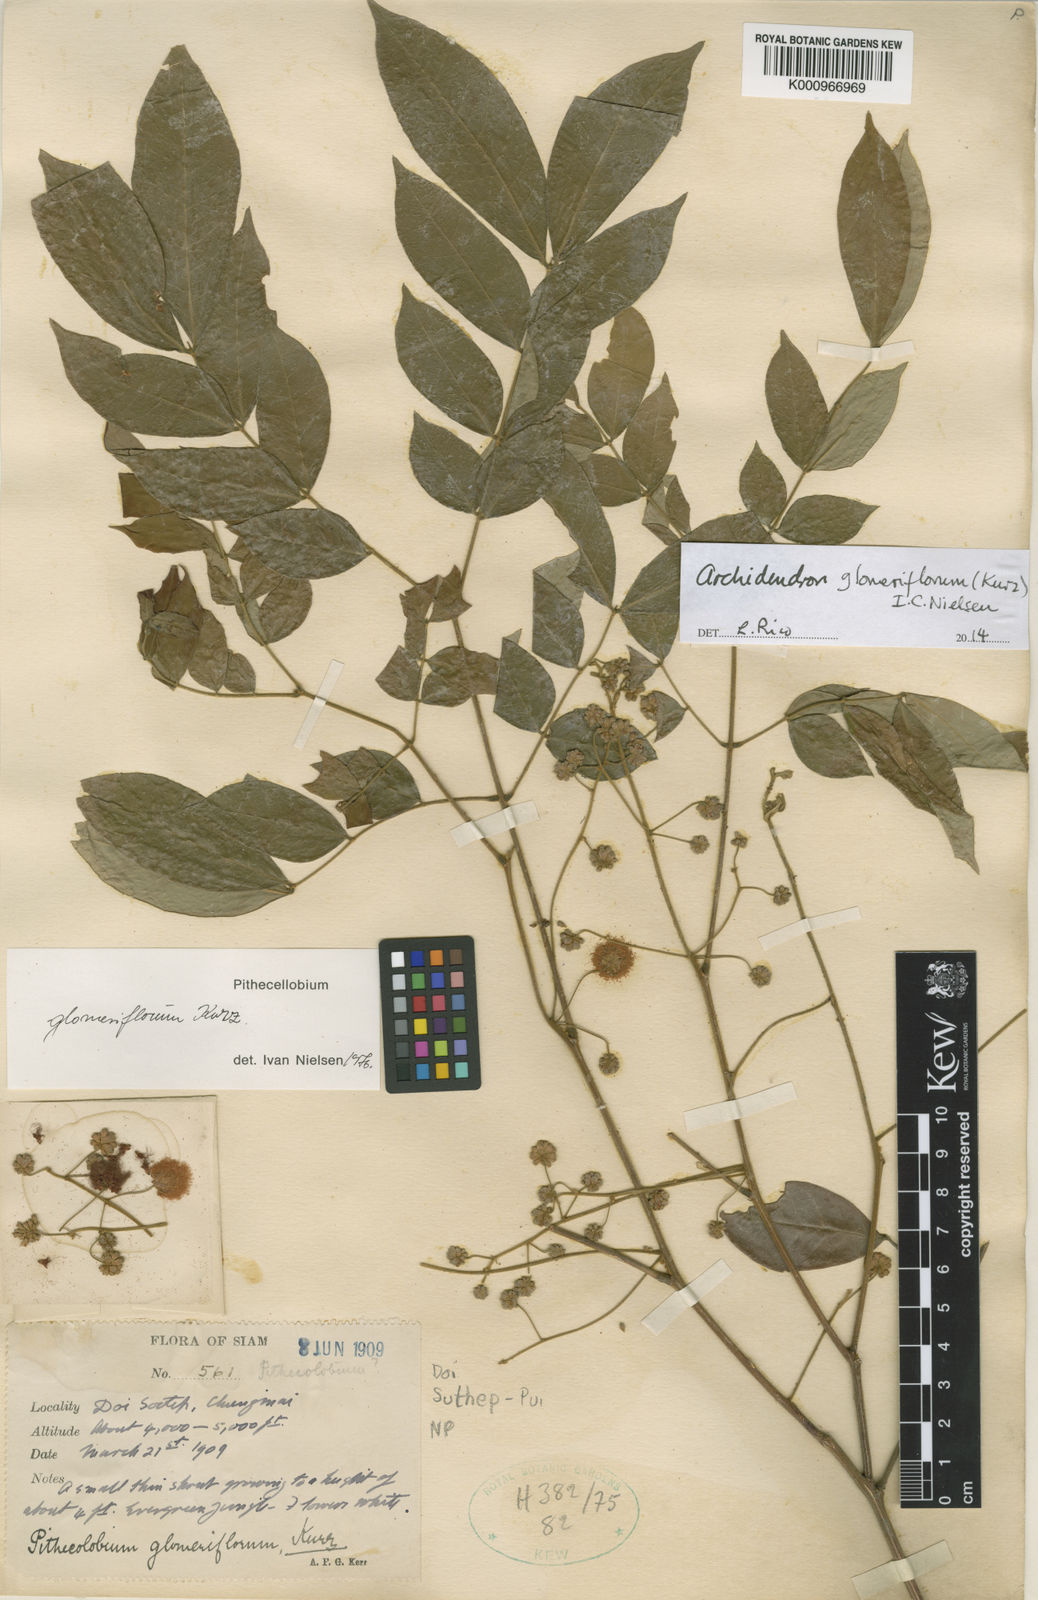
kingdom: Plantae
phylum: Tracheophyta
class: Magnoliopsida
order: Fabales
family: Fabaceae
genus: Archidendron
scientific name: Archidendron glomeriflorum
